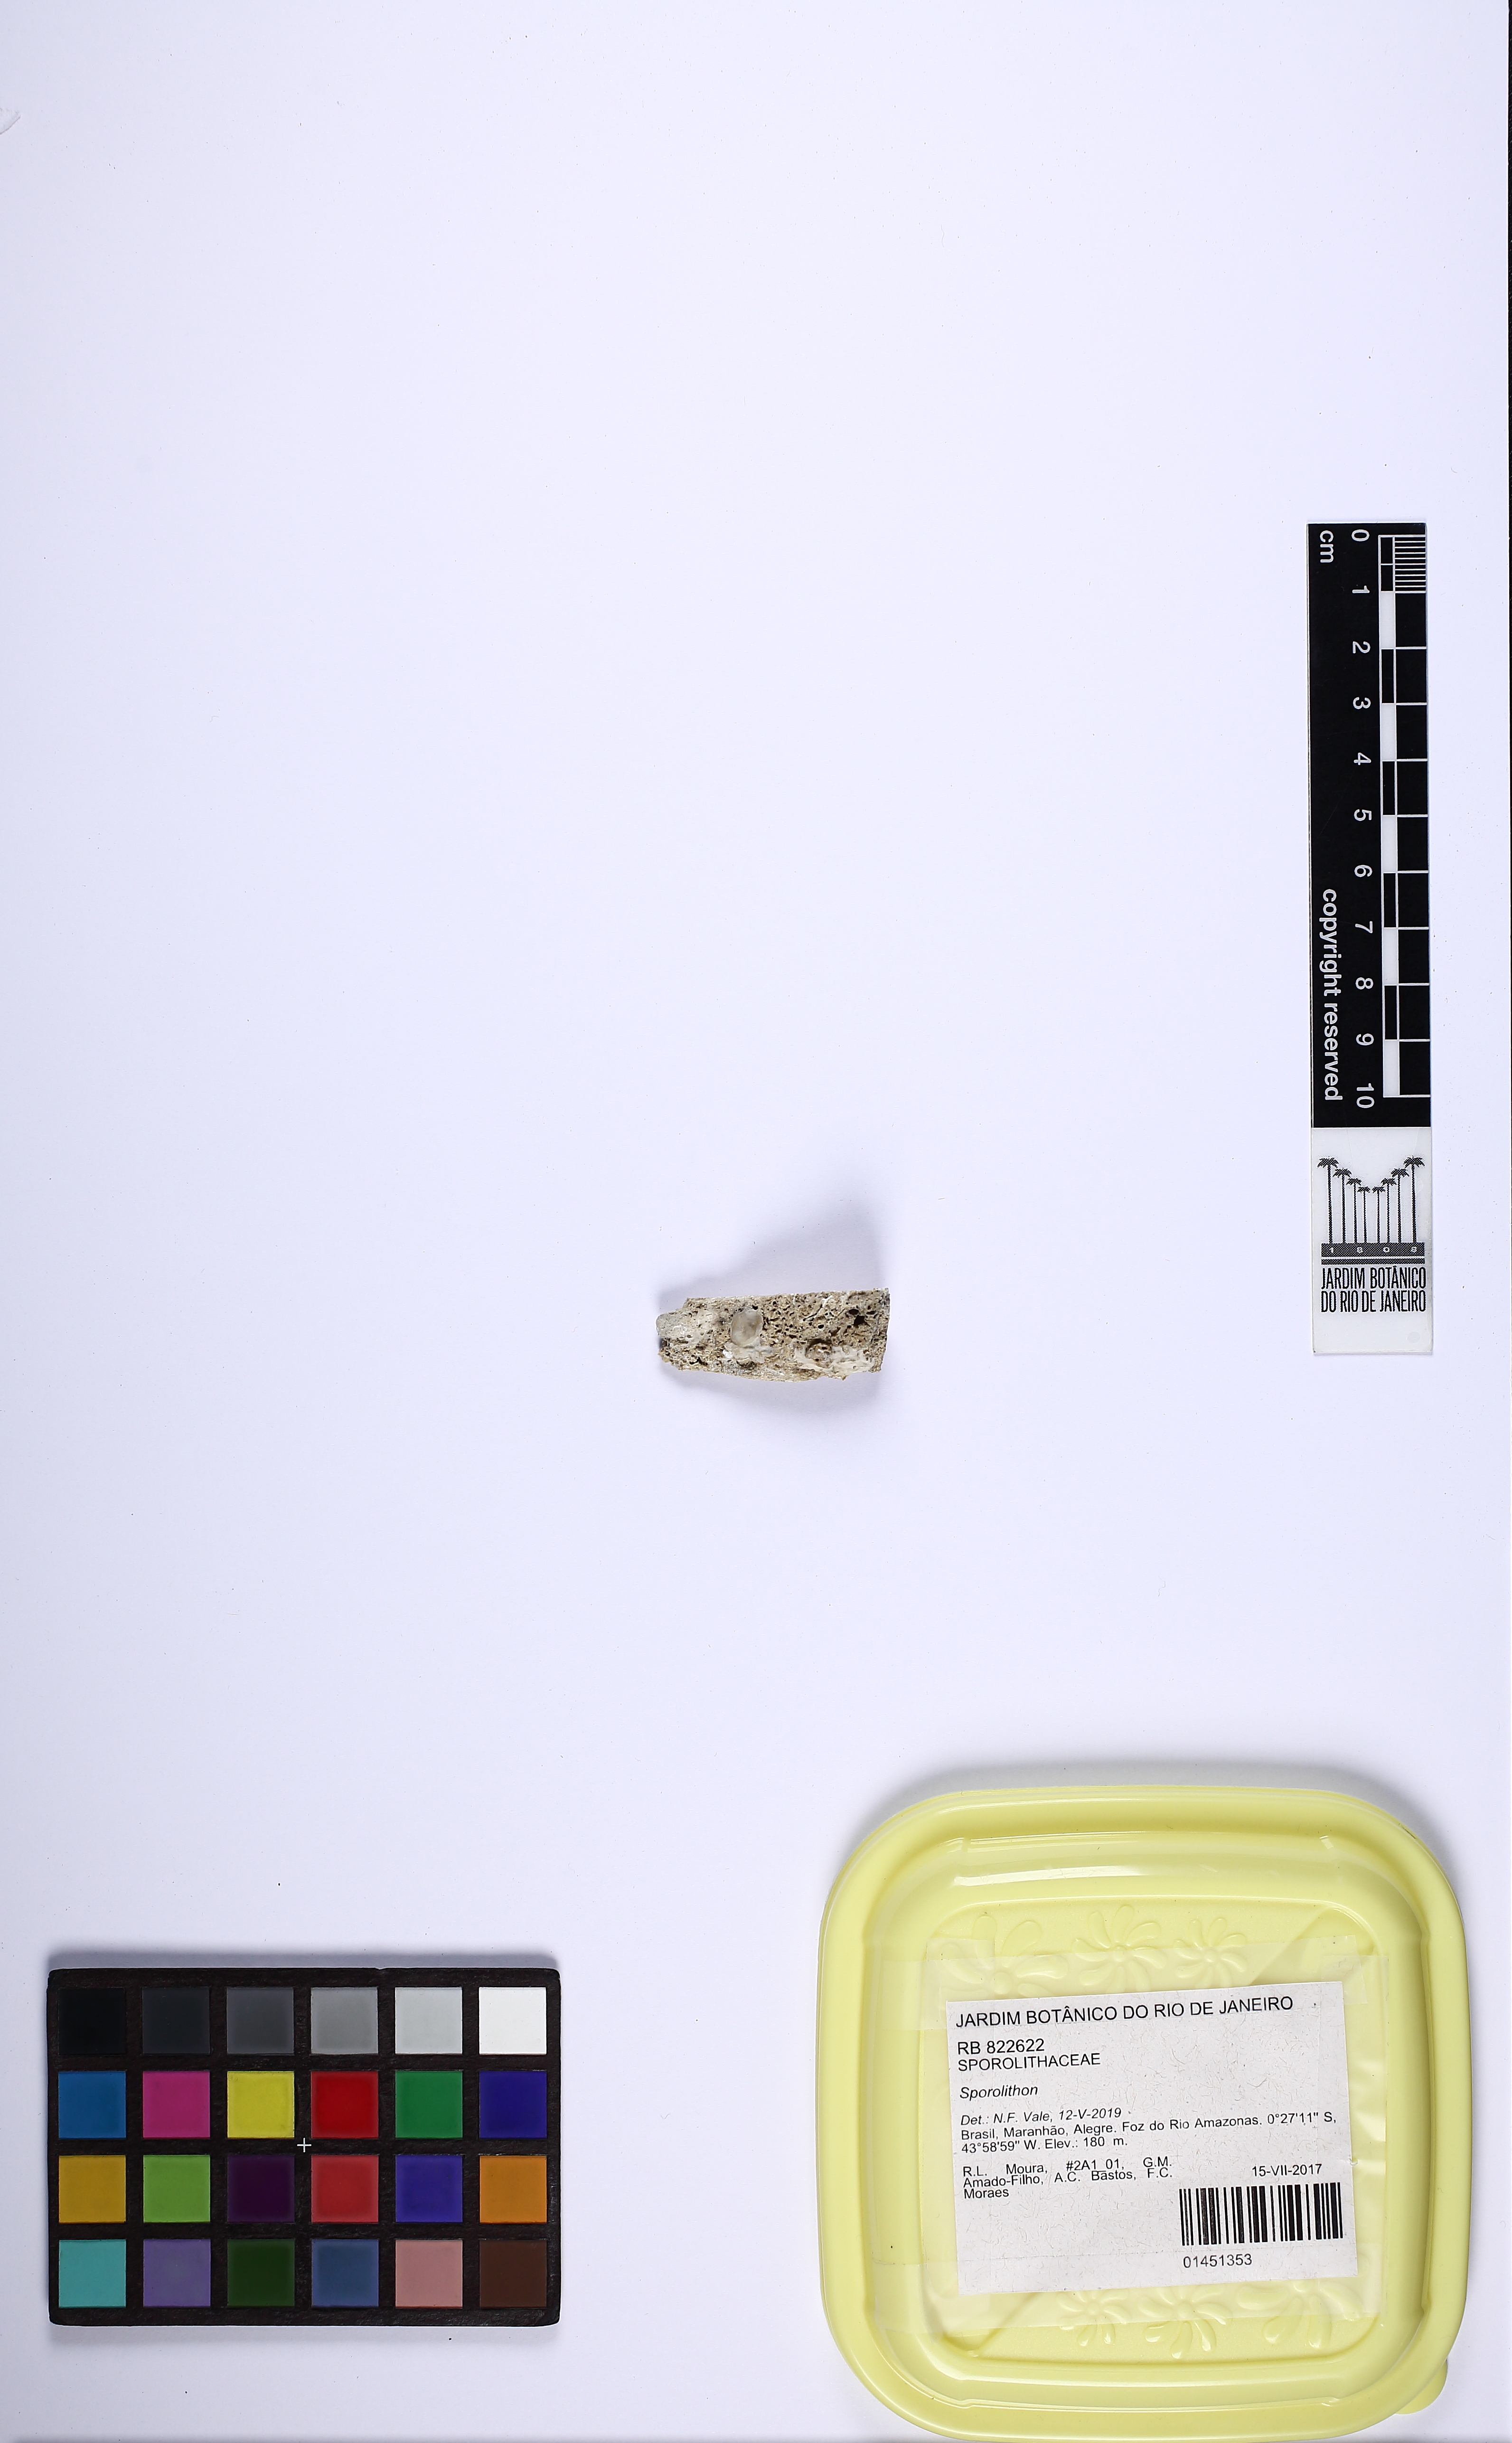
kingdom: Plantae
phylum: Rhodophyta
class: Florideophyceae
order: Corallinales
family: Sporolithaceae
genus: Sporolithon
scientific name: Sporolithon
